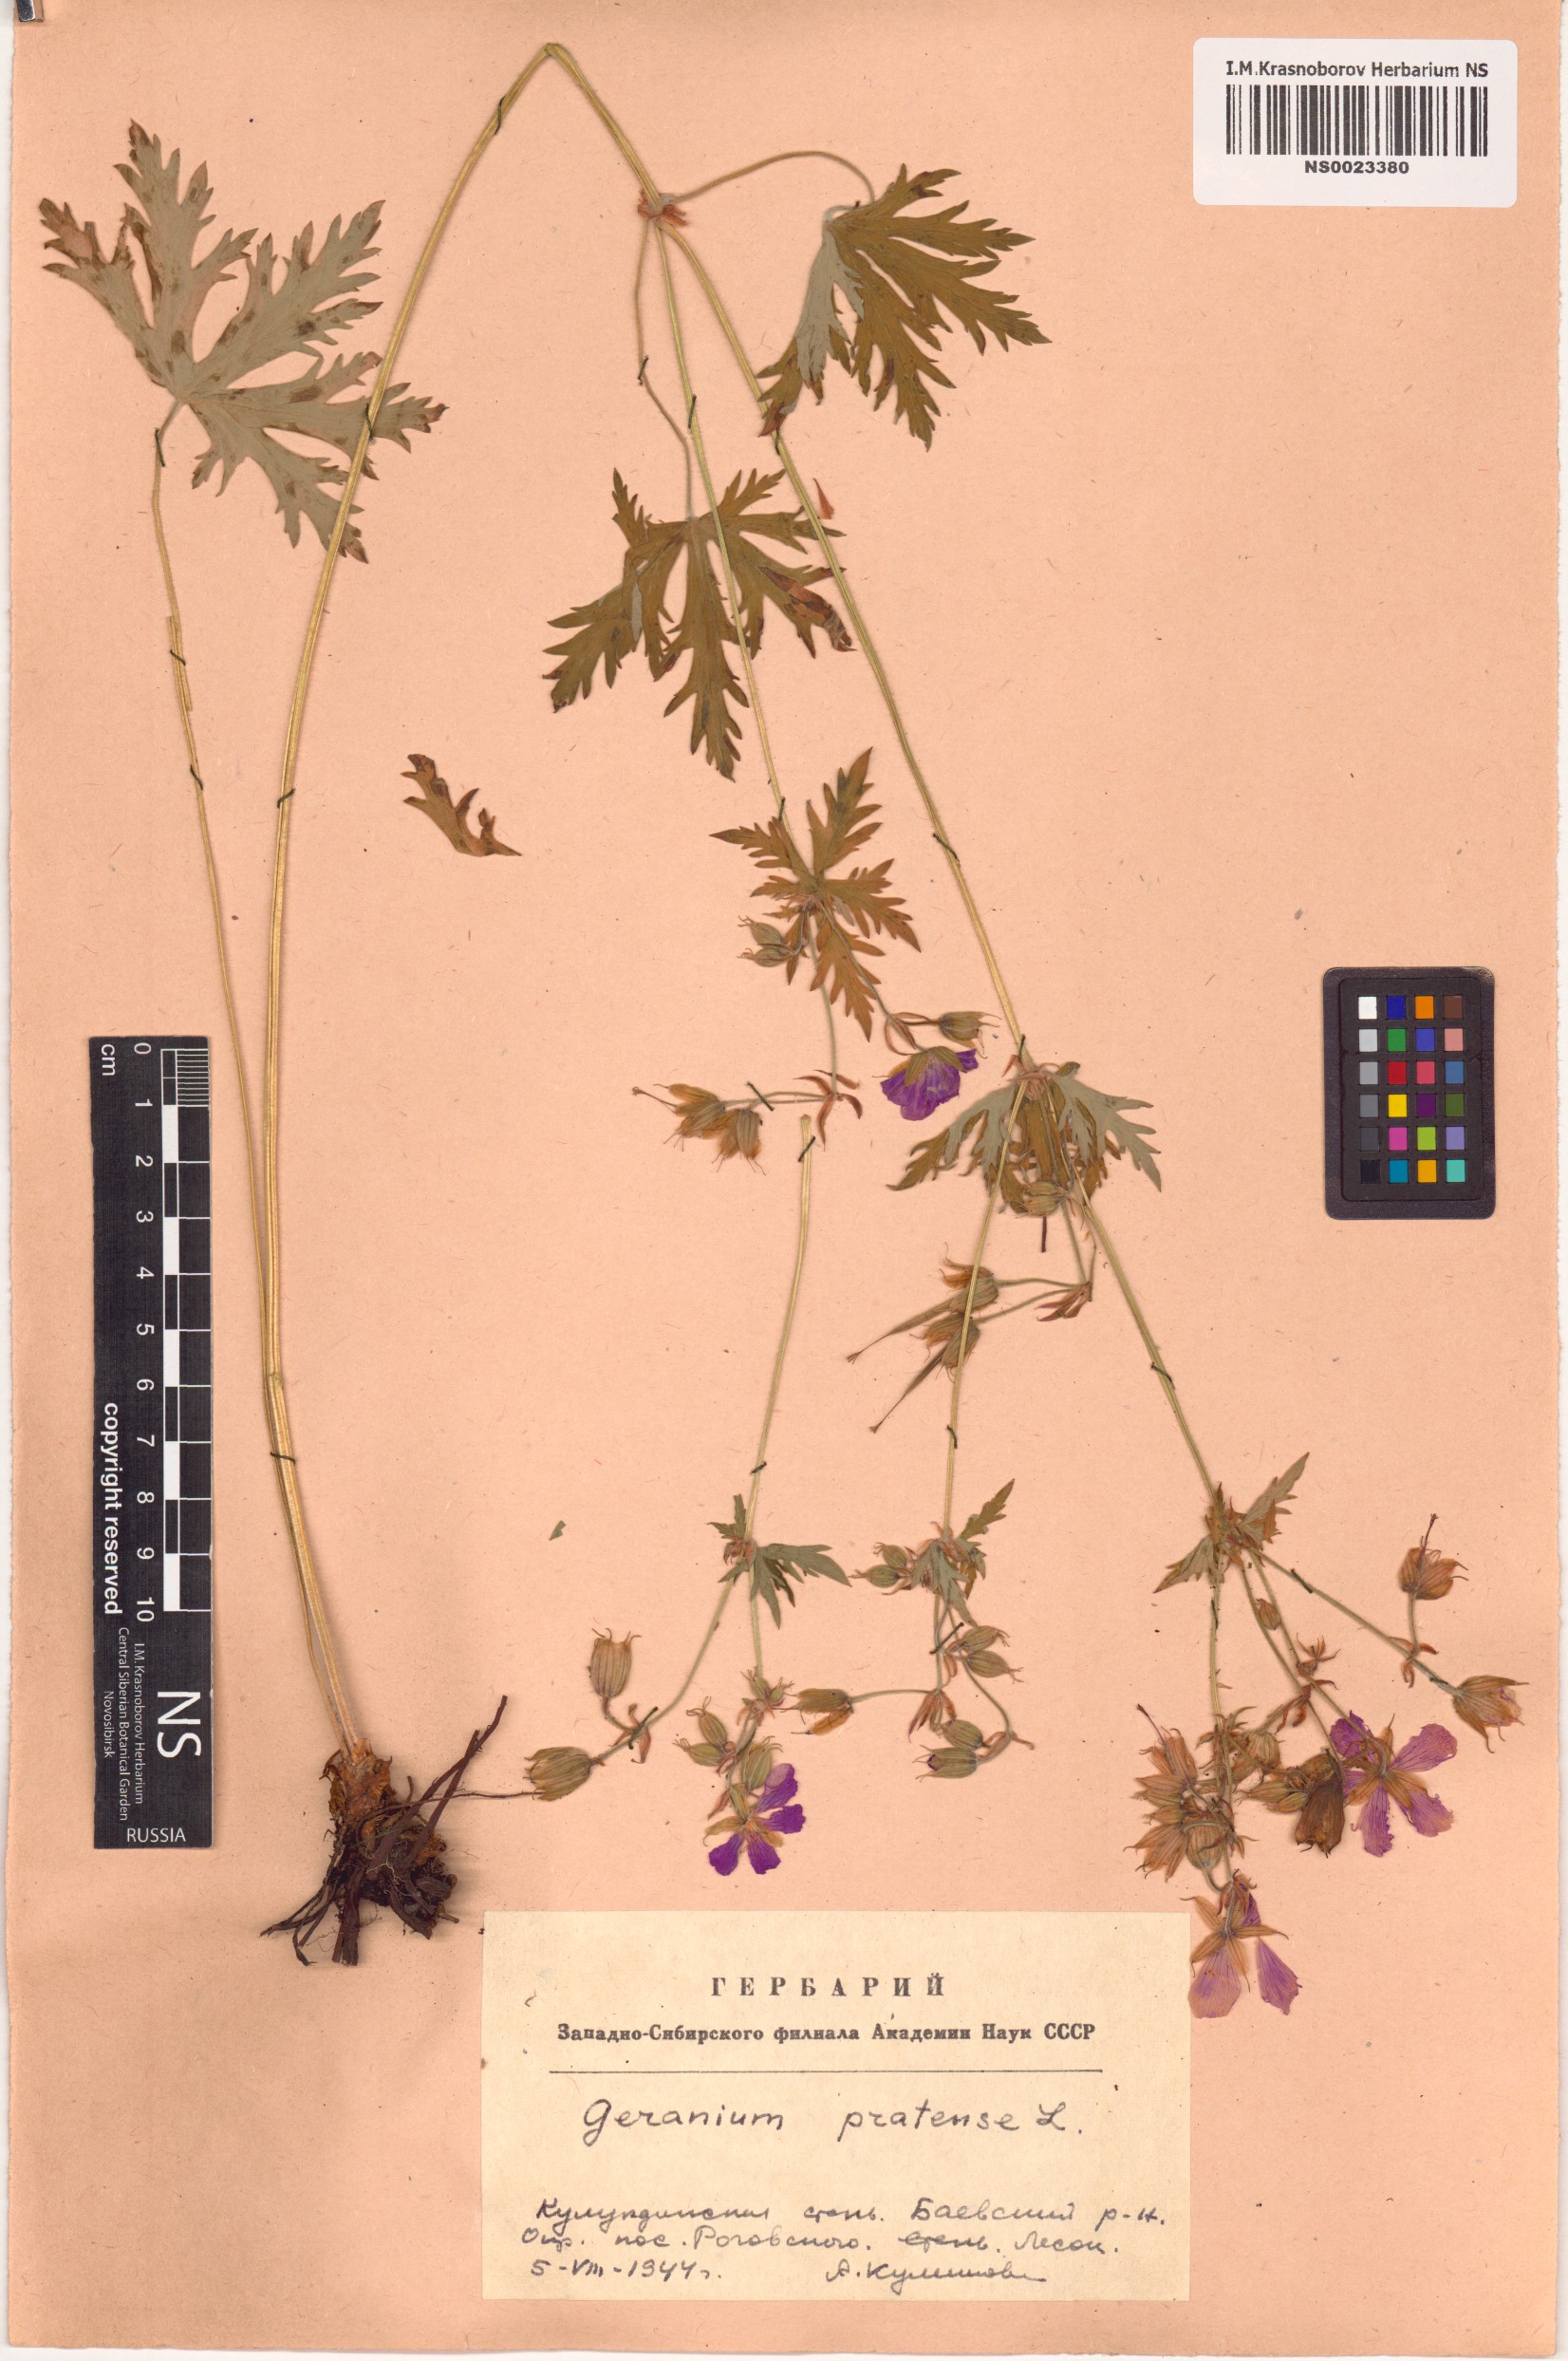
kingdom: Plantae
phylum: Tracheophyta
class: Magnoliopsida
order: Geraniales
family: Geraniaceae
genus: Geranium
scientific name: Geranium pratense
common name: Meadow crane's-bill
